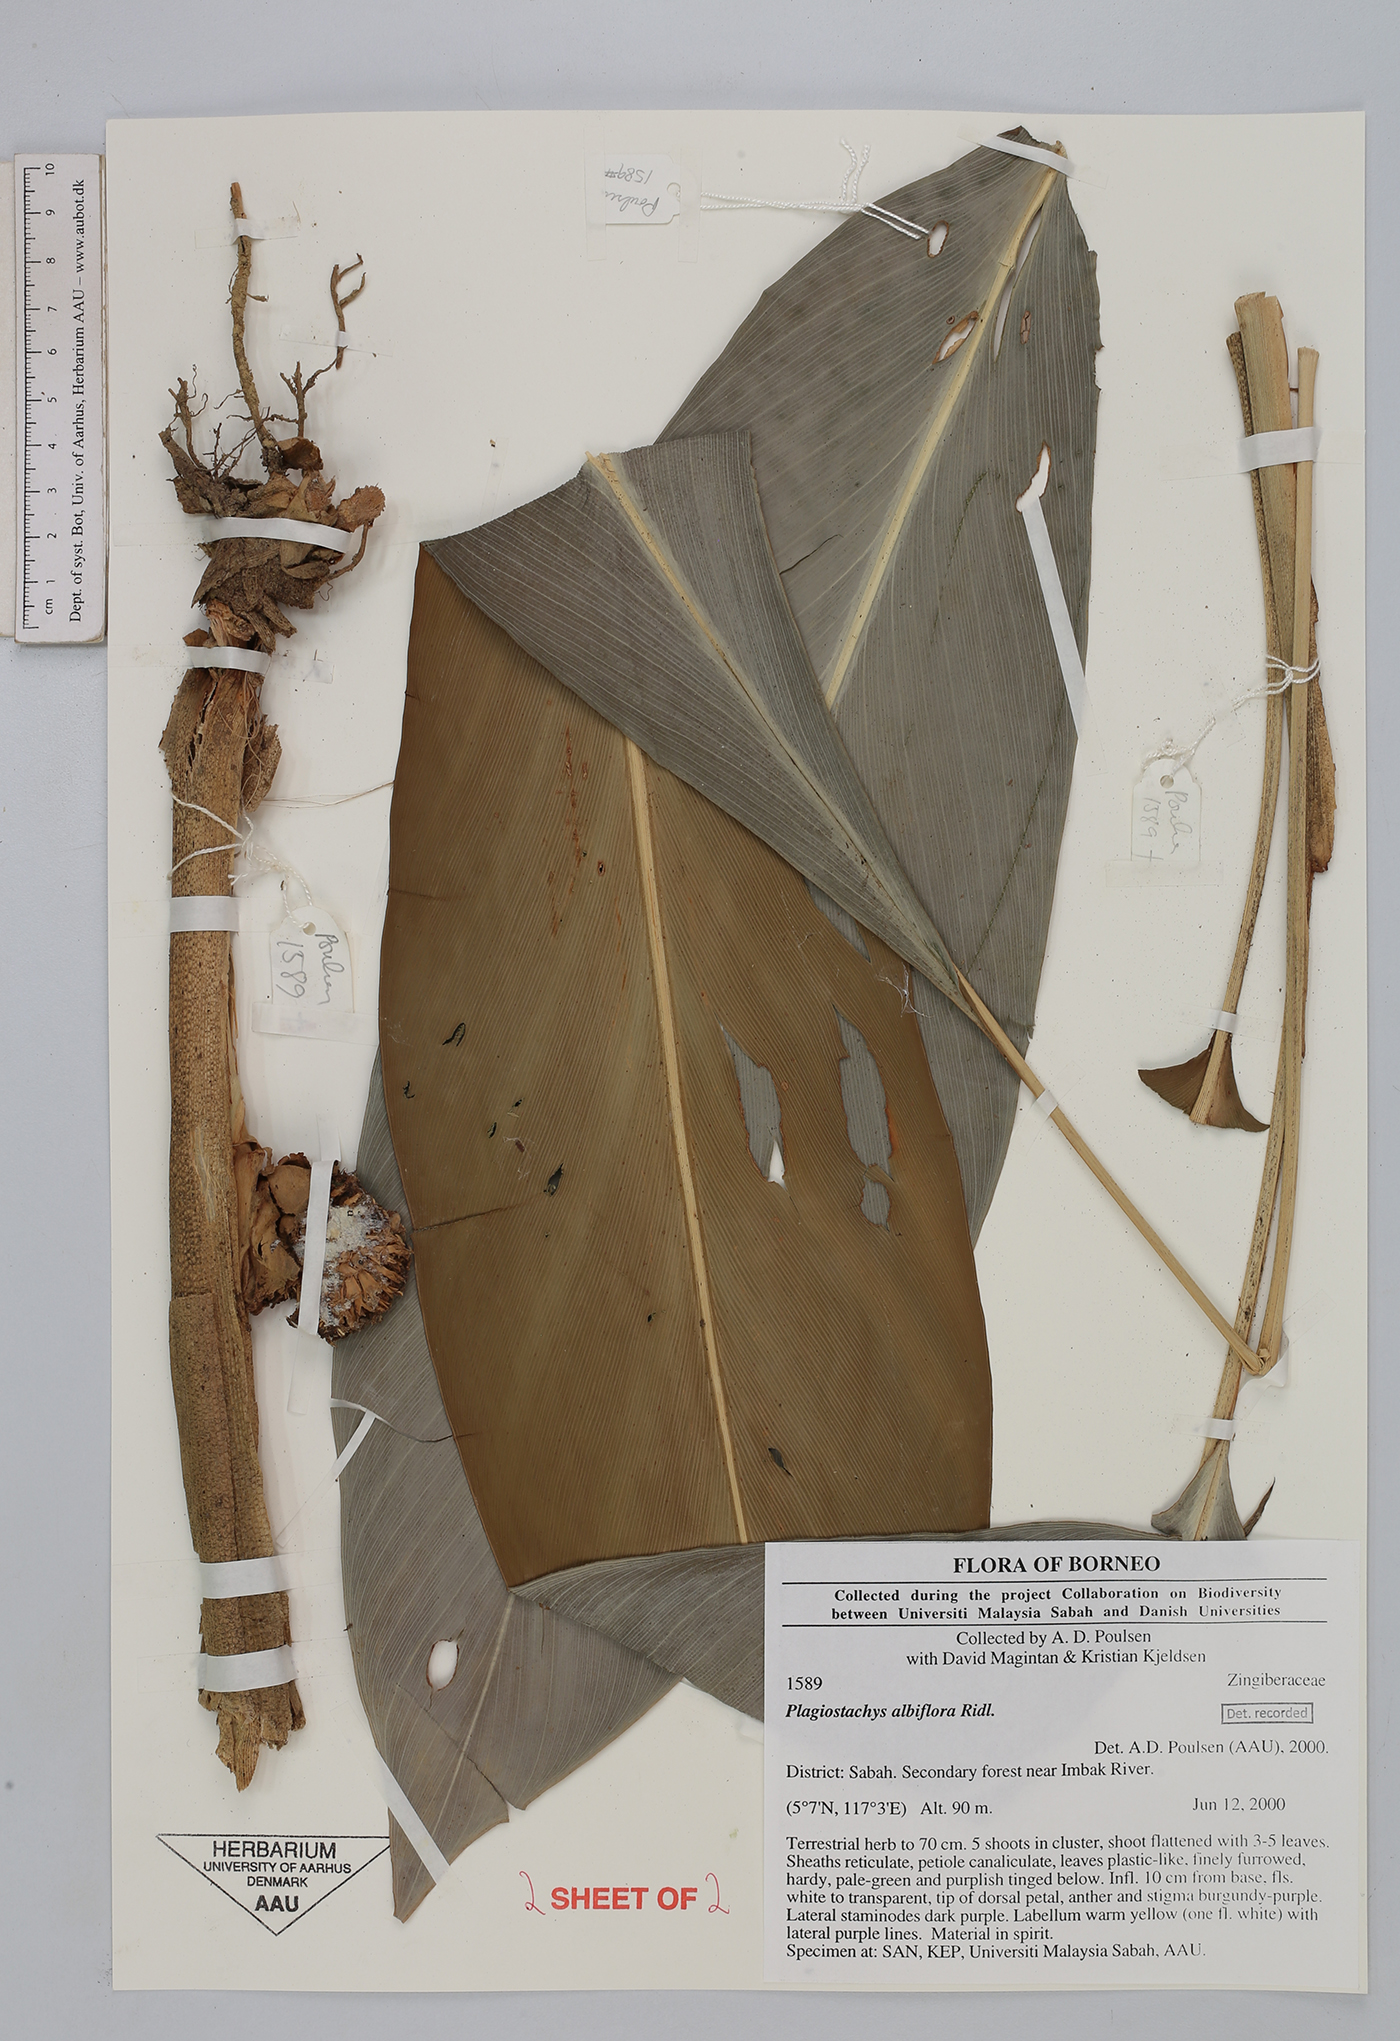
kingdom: Plantae
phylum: Tracheophyta
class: Liliopsida
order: Zingiberales
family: Zingiberaceae
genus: Plagiostachys
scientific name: Plagiostachys albiflora
